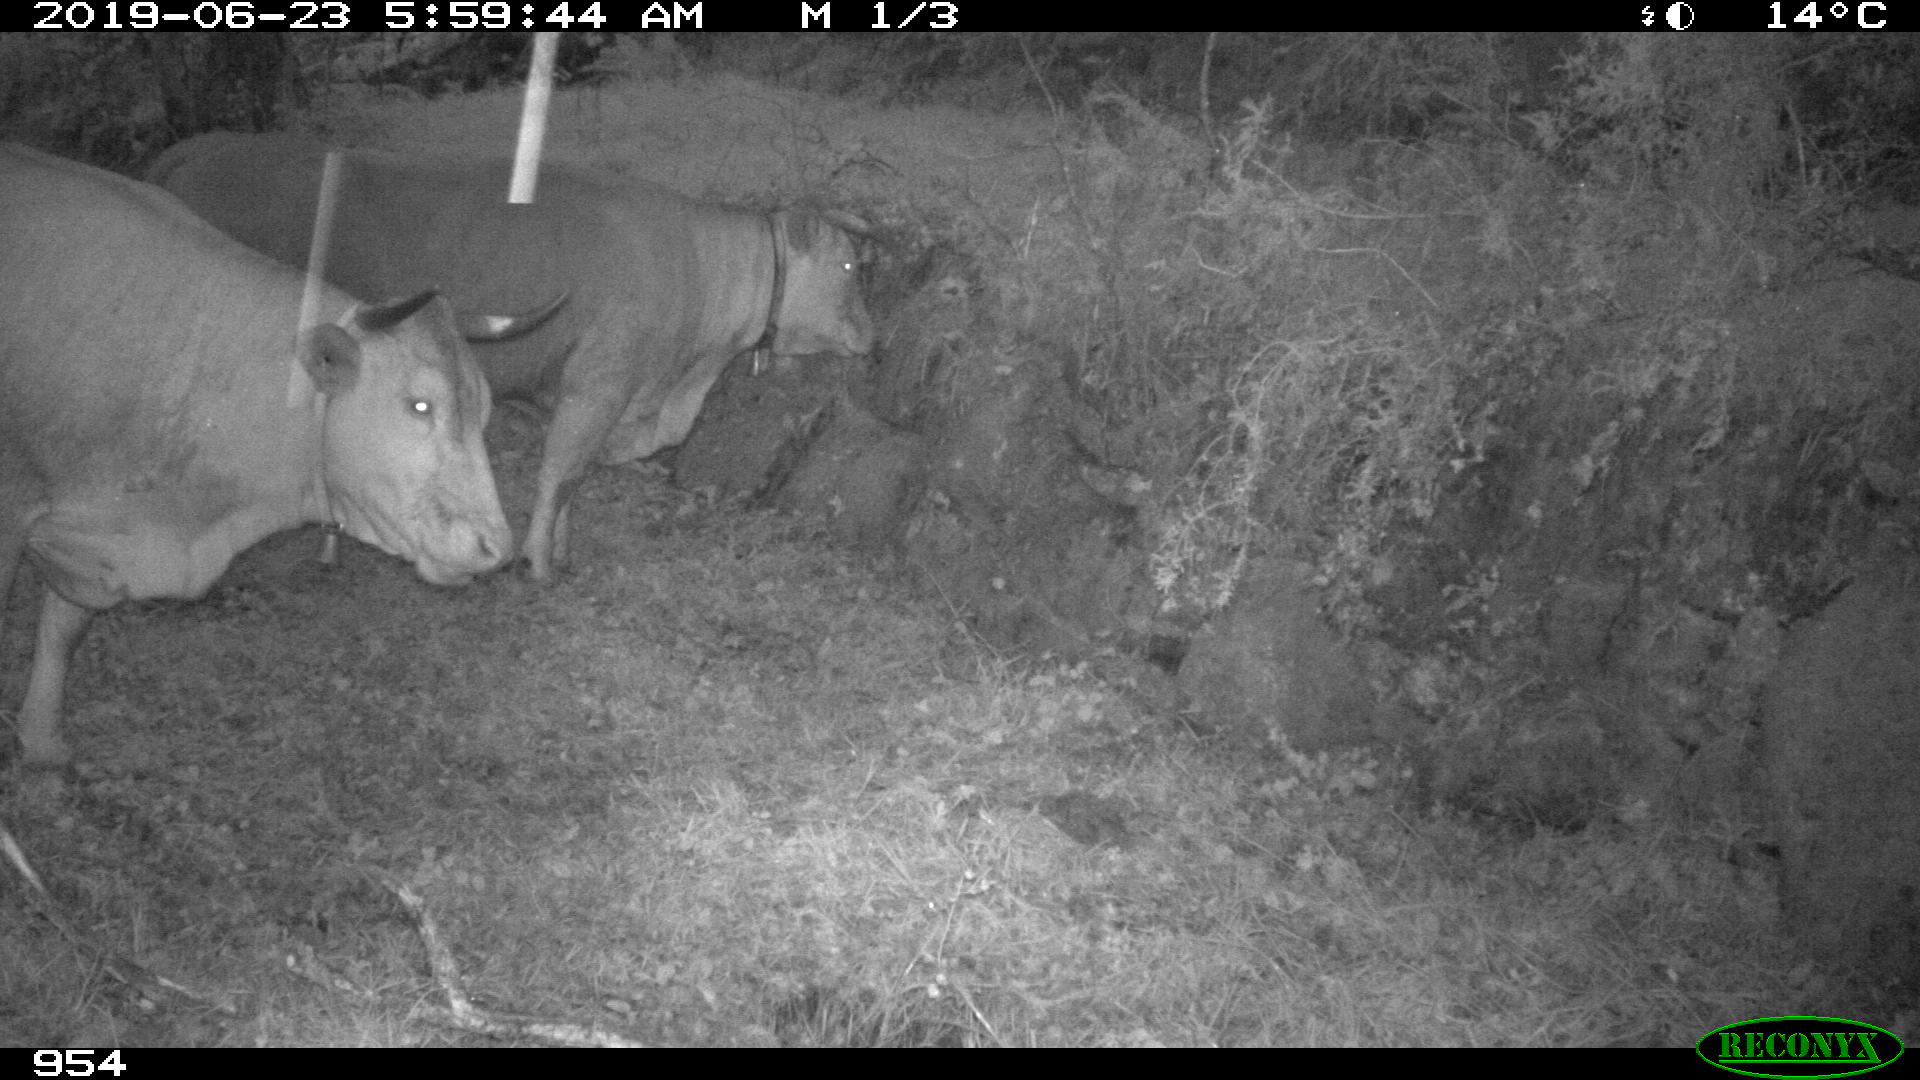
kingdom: Animalia
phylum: Chordata
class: Mammalia
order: Artiodactyla
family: Bovidae
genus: Bos
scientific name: Bos taurus
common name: Domesticated cattle
